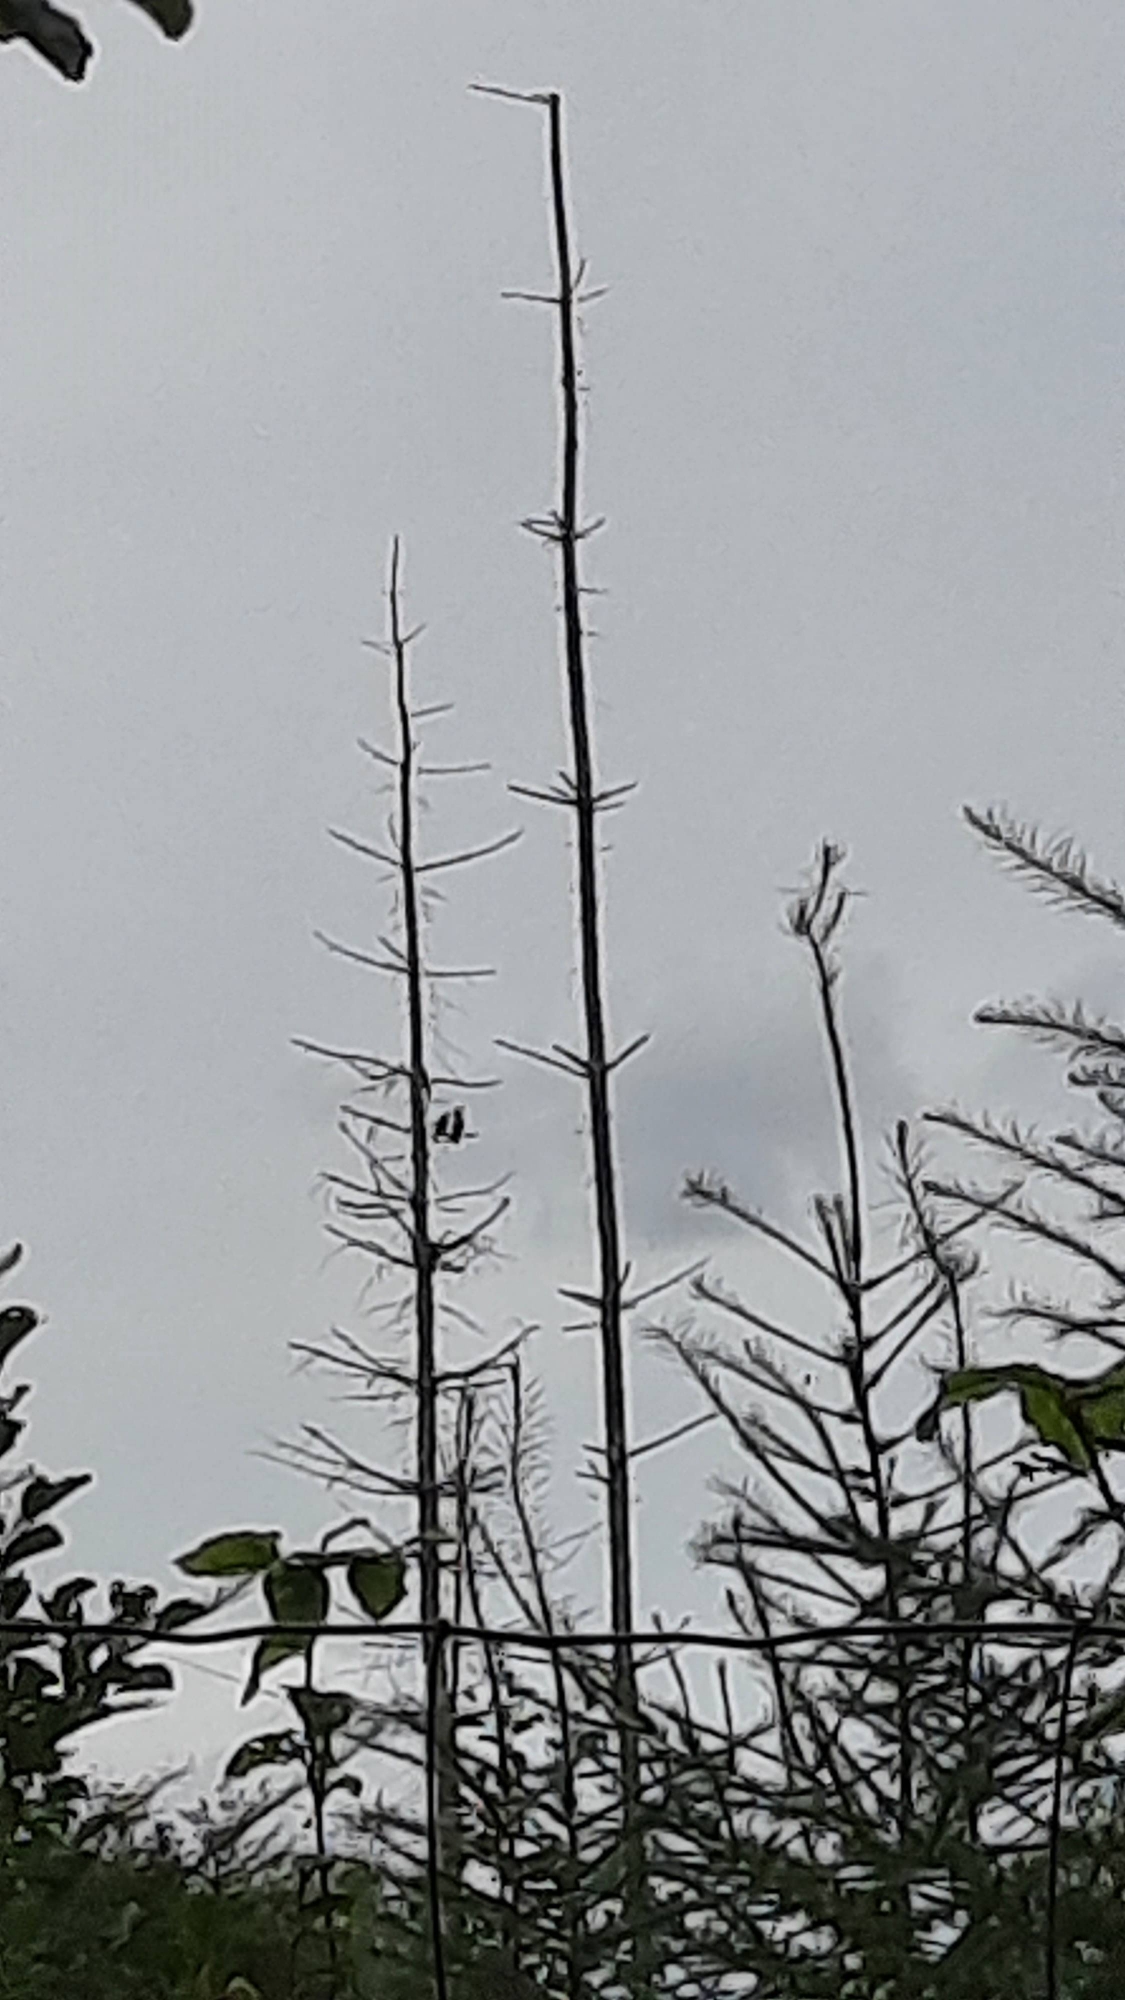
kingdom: Animalia
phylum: Chordata
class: Aves
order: Falconiformes
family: Falconidae
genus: Falco
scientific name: Falco tinnunculus
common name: Tårnfalk
